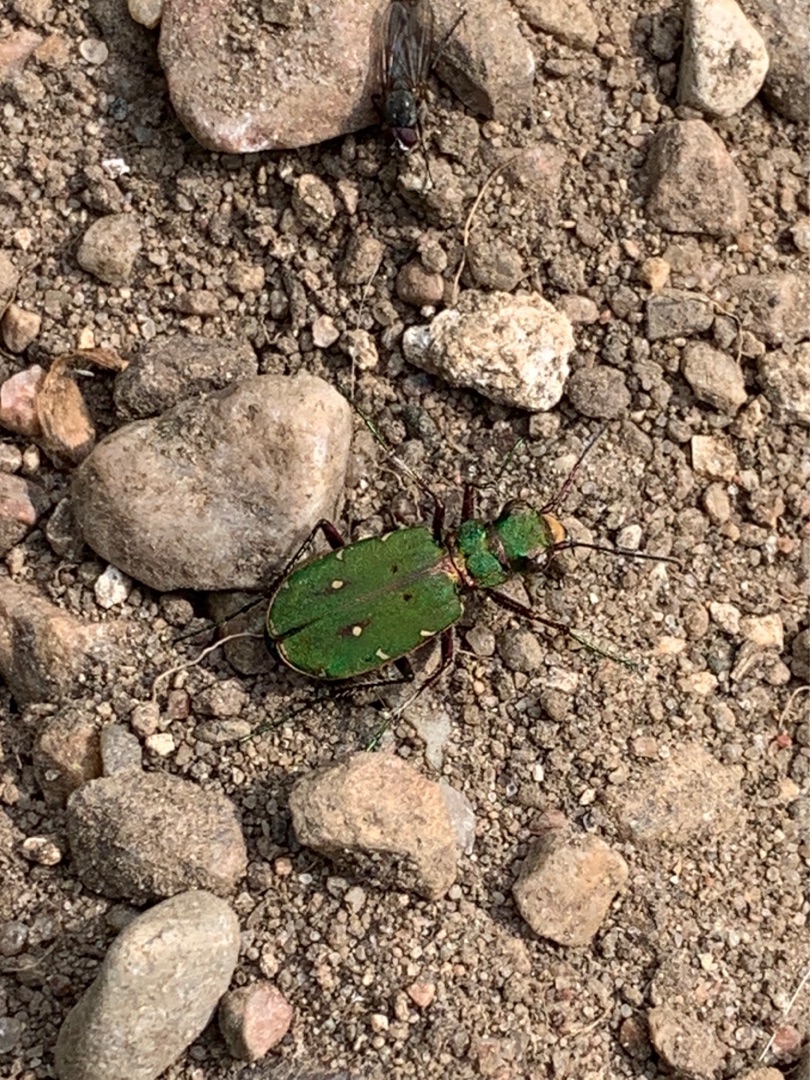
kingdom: Animalia
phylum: Arthropoda
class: Insecta
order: Coleoptera
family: Carabidae
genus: Cicindela
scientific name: Cicindela campestris
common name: Grøn sandspringer
